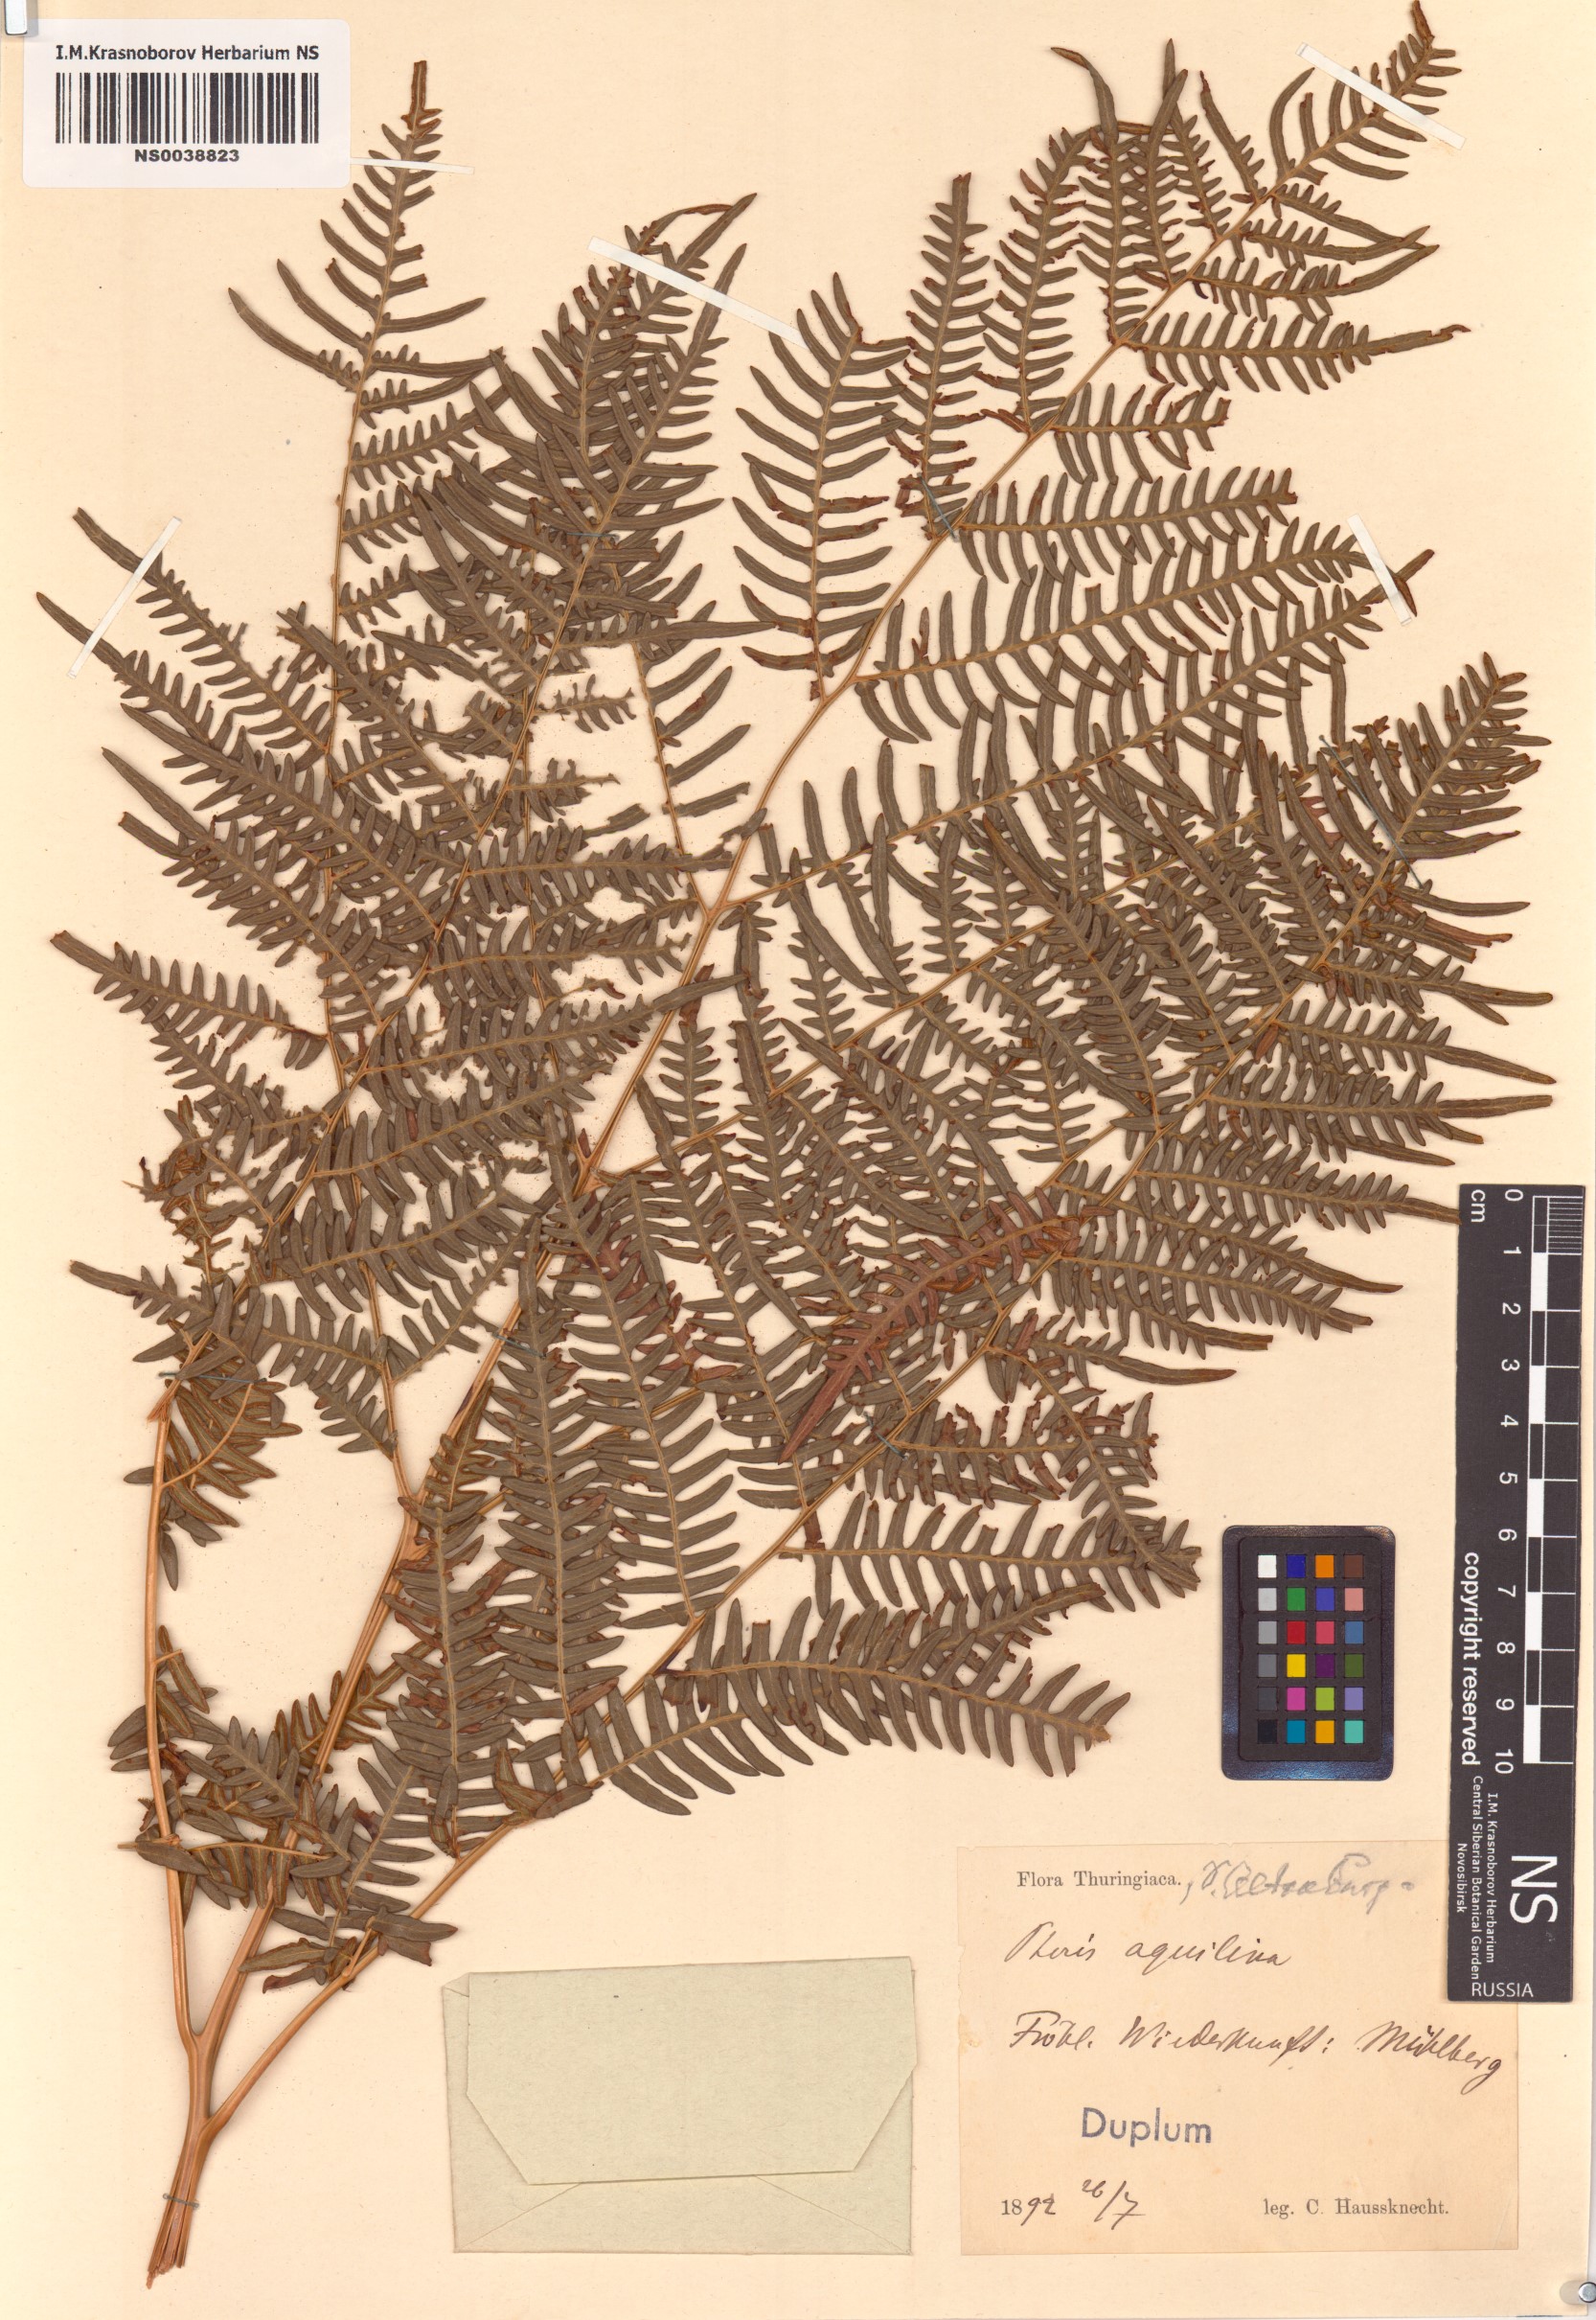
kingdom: Plantae
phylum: Tracheophyta
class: Polypodiopsida
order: Polypodiales
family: Dennstaedtiaceae
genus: Pteridium
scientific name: Pteridium aquilinum
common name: Bracken
